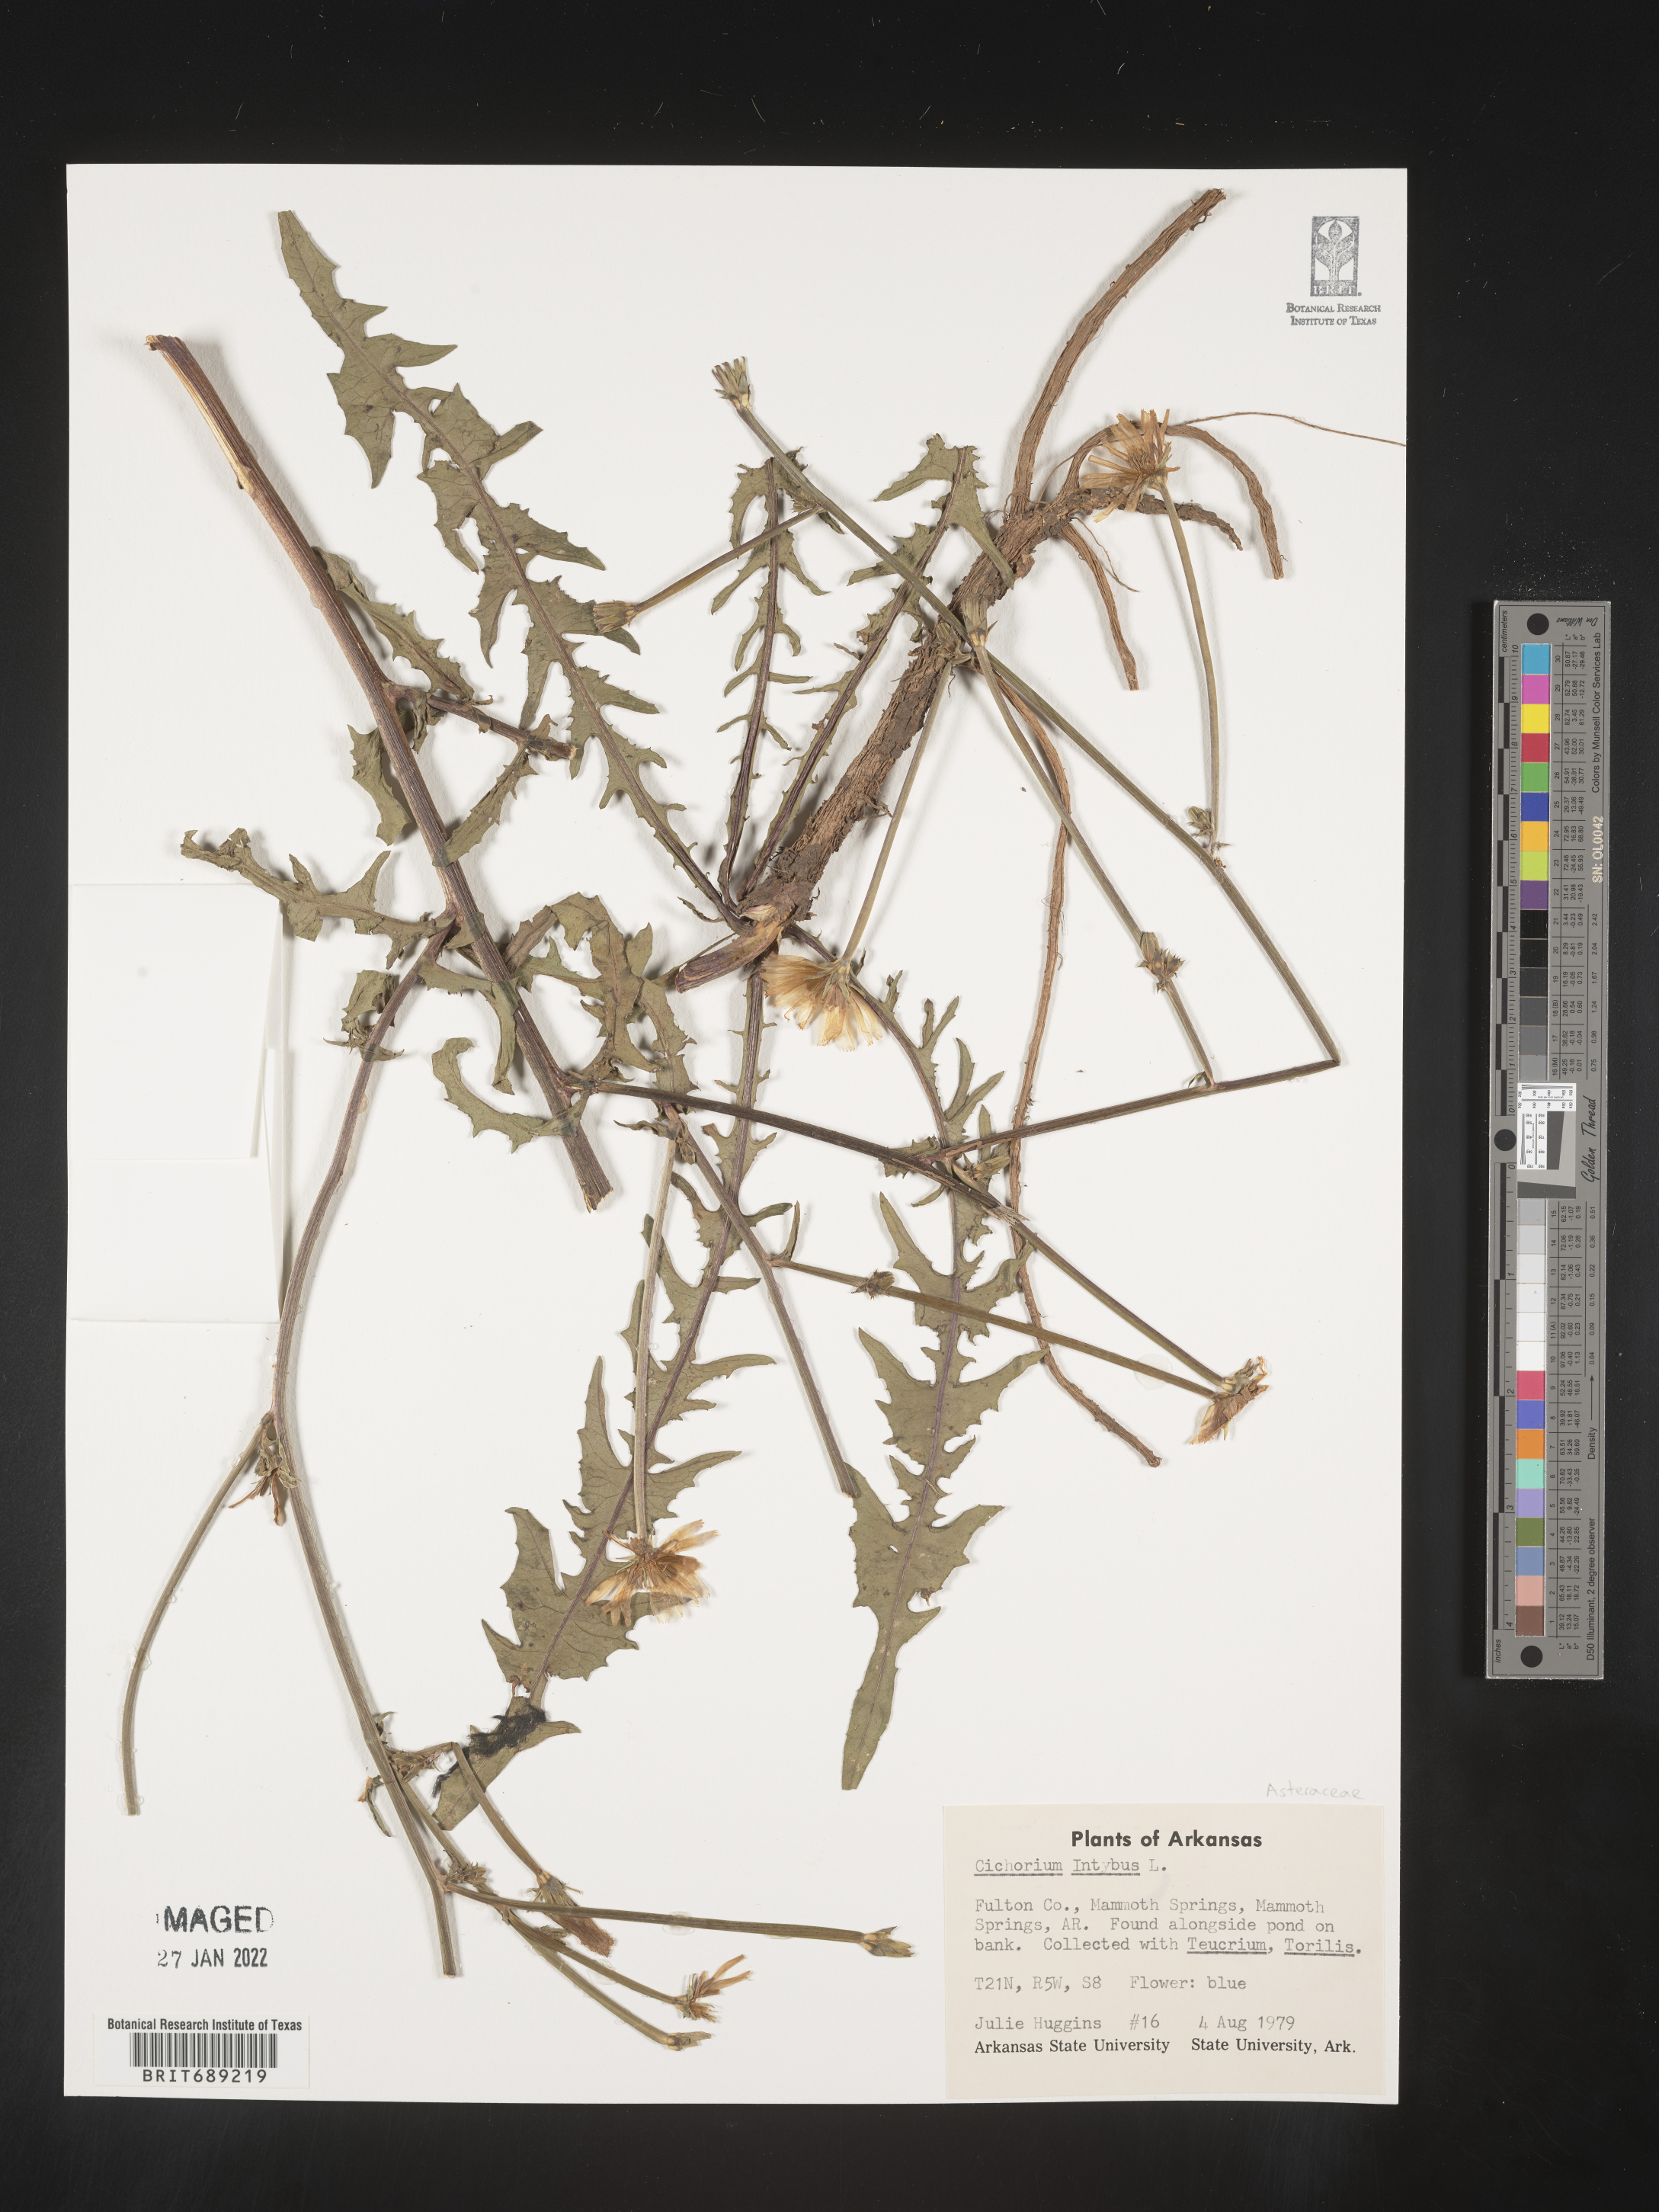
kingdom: Plantae
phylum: Tracheophyta
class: Magnoliopsida
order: Asterales
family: Asteraceae
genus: Cichorium
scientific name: Cichorium intybus
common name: Chicory
